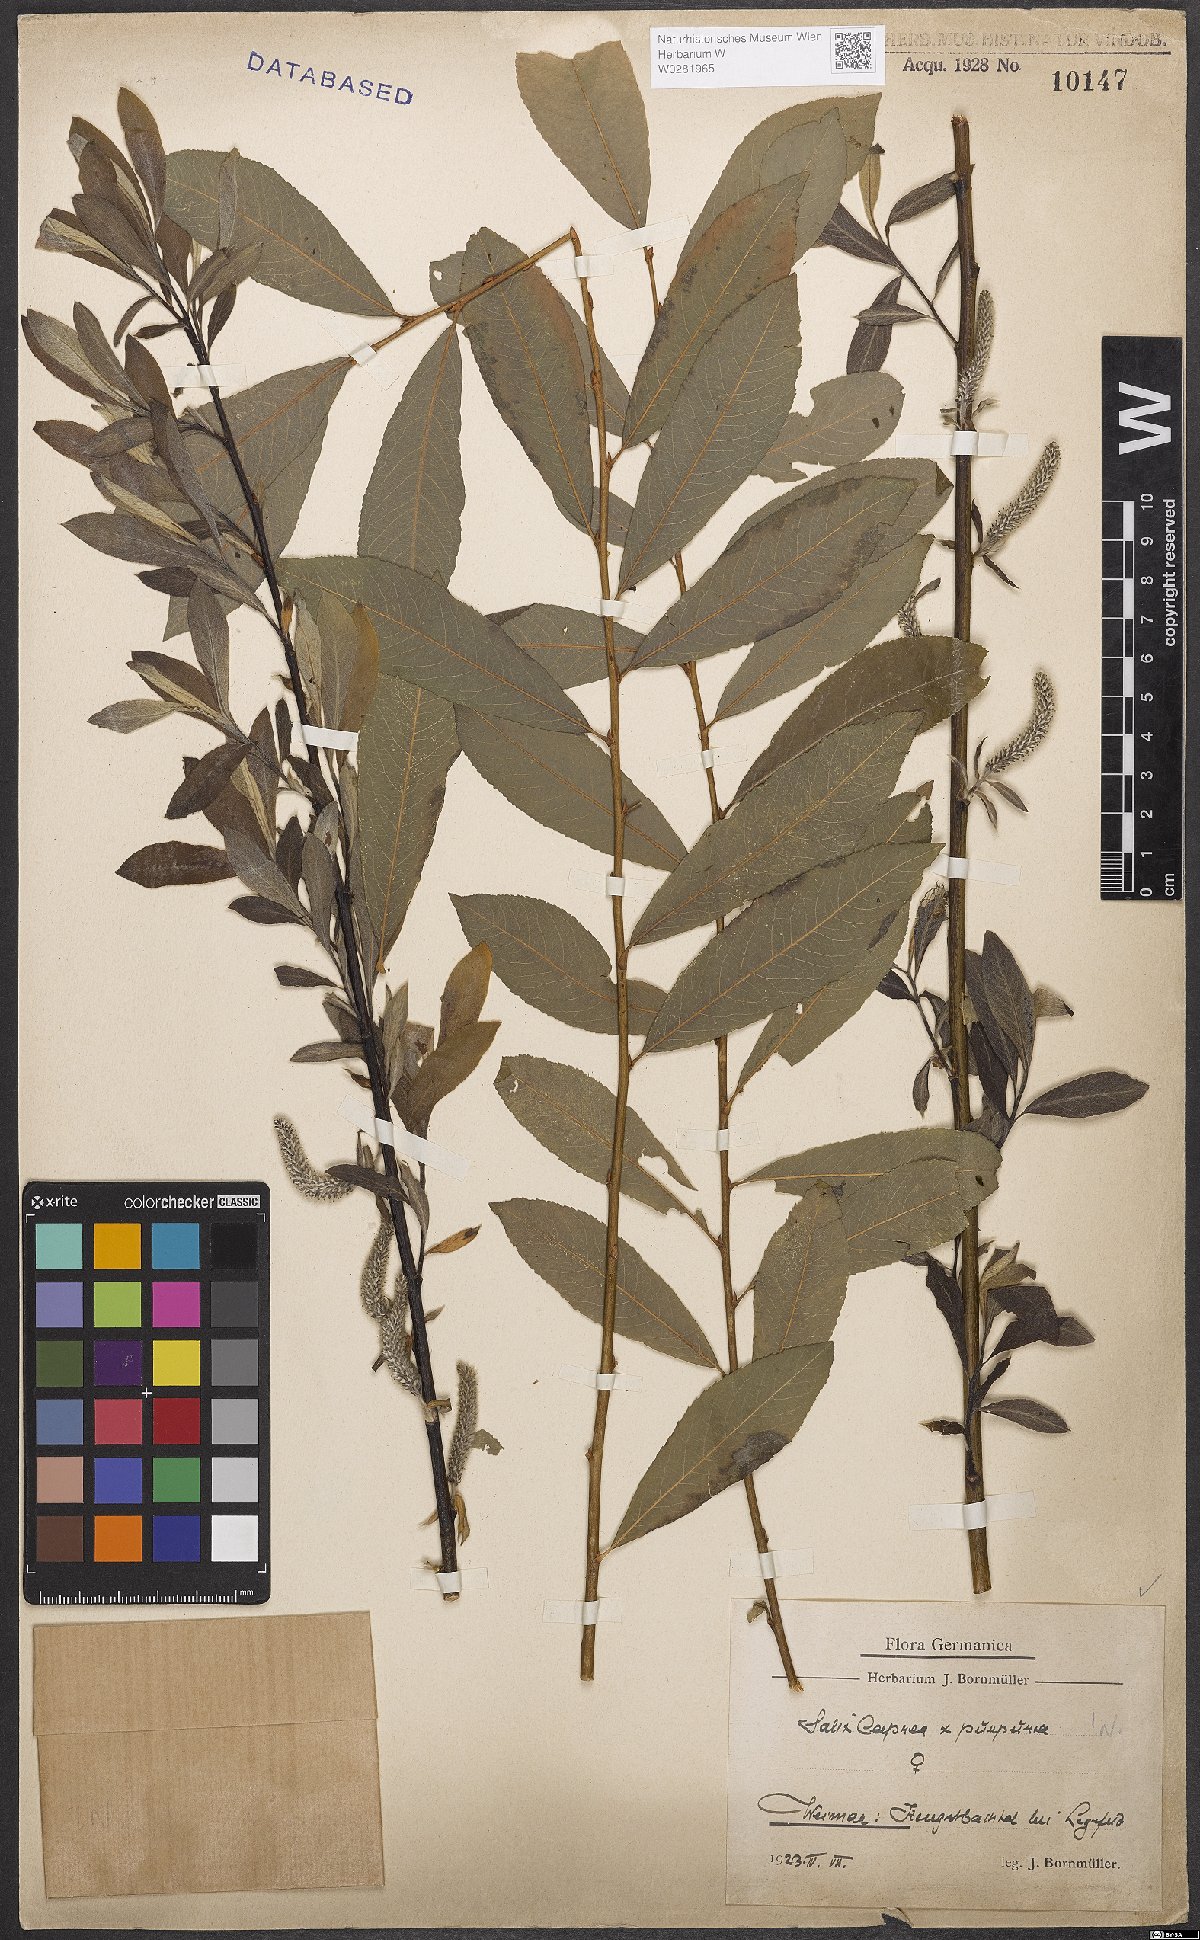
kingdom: Plantae
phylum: Tracheophyta
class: Magnoliopsida
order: Malpighiales
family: Salicaceae
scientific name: Salicaceae
